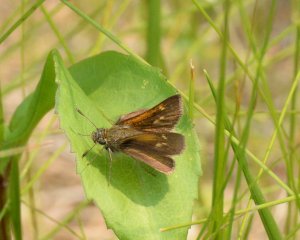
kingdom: Animalia
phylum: Arthropoda
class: Insecta
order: Lepidoptera
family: Hesperiidae
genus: Polites
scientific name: Polites themistocles
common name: Tawny-edged Skipper
